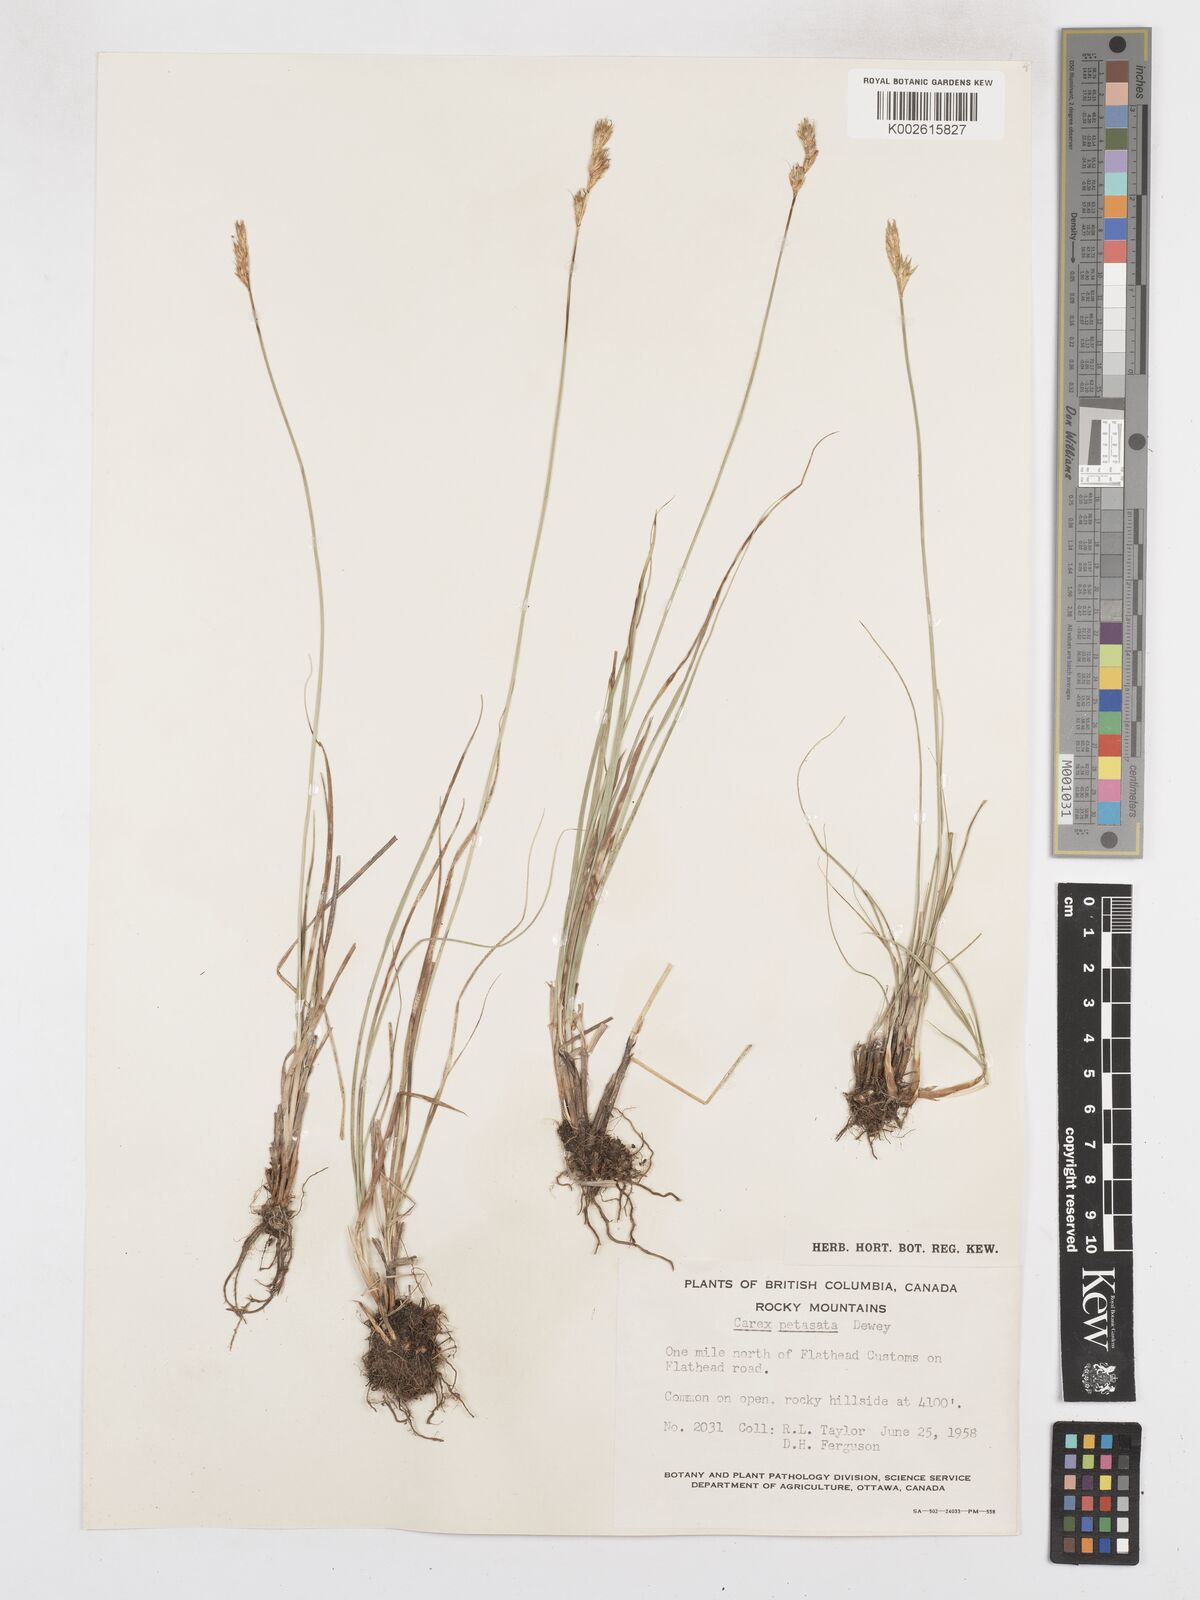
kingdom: Plantae
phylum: Tracheophyta
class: Liliopsida
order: Poales
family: Cyperaceae
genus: Carex
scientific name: Carex petasata
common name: Liddon's sedge
